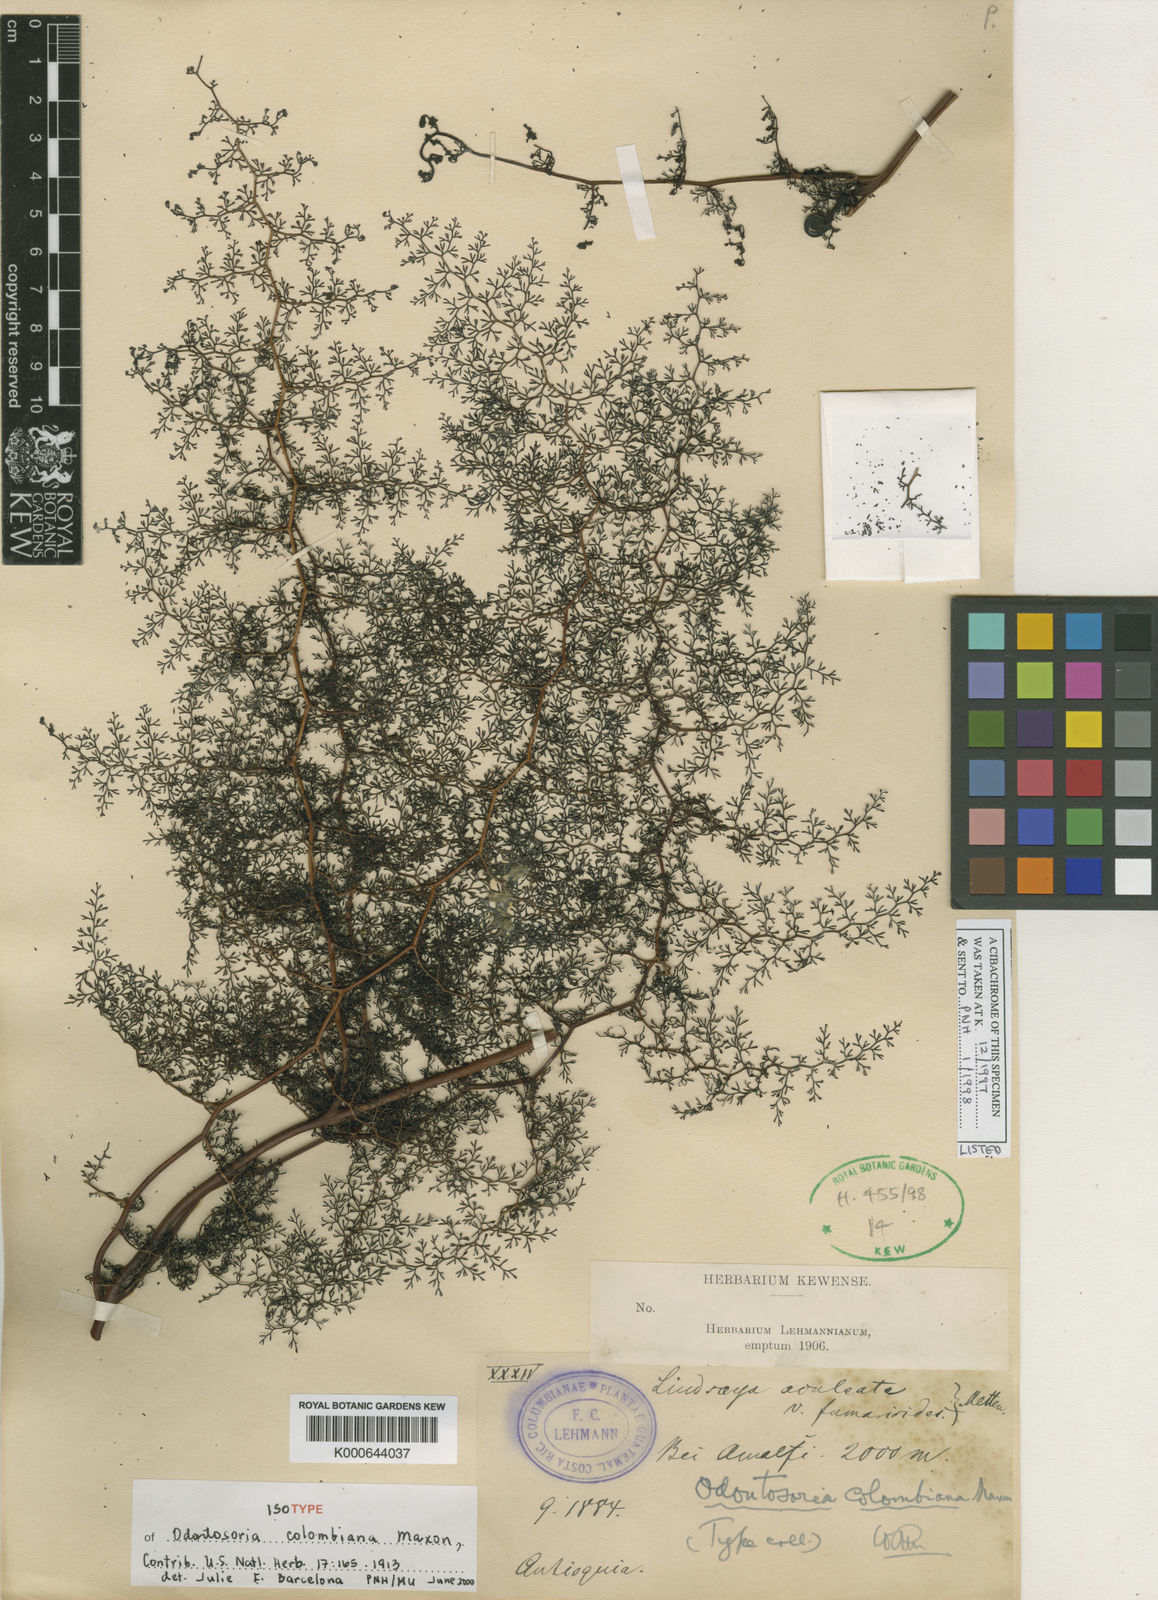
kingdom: Plantae
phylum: Tracheophyta
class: Polypodiopsida
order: Polypodiales
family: Lindsaeaceae
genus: Odontosoria
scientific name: Odontosoria colombiana
